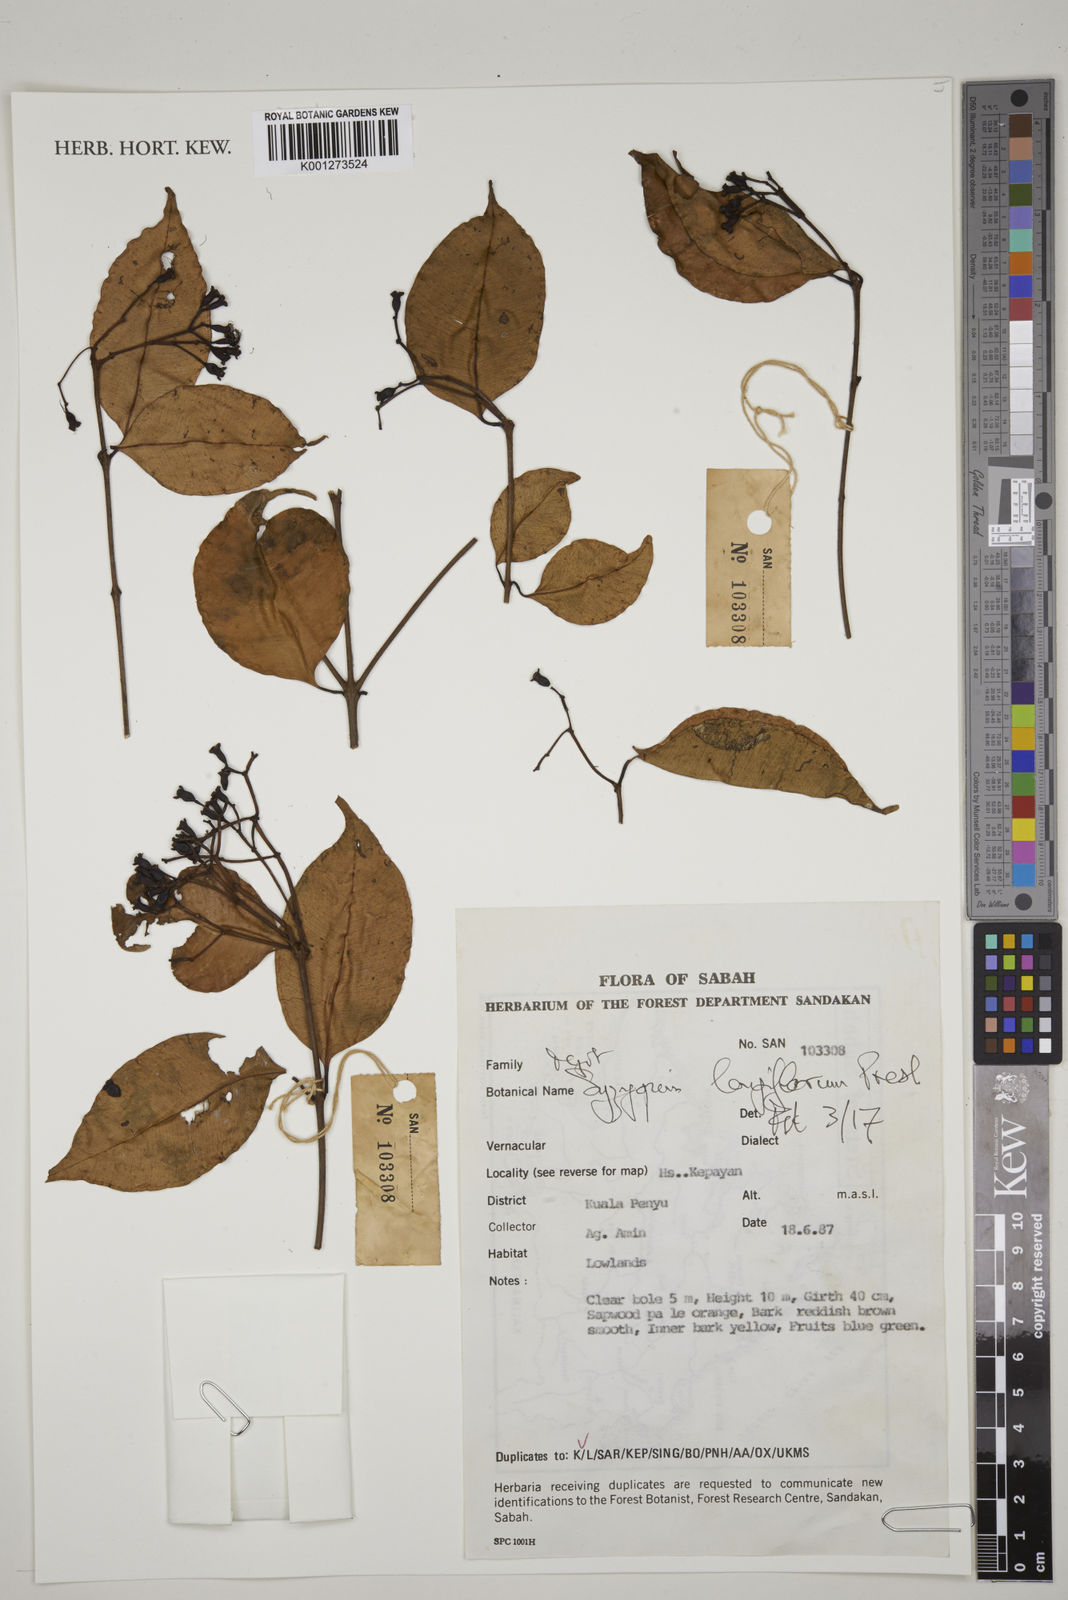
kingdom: Plantae
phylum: Tracheophyta
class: Magnoliopsida
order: Myrtales
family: Myrtaceae
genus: Syzygium
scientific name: Syzygium lineatum
